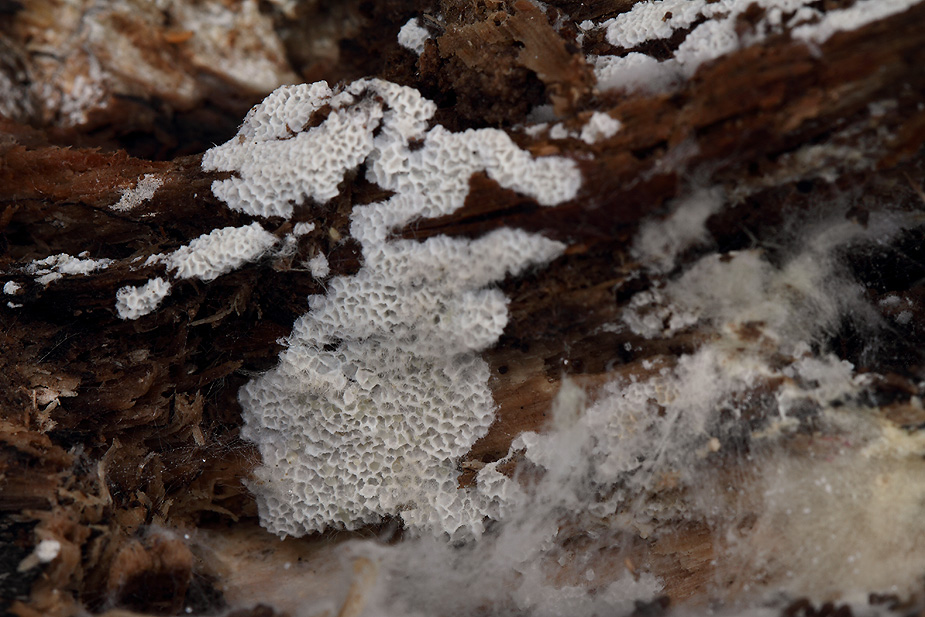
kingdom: Fungi
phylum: Basidiomycota
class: Agaricomycetes
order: Polyporales
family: Irpicaceae
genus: Ceriporia
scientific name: Ceriporia reticulata
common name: netagtig voksporesvamp
